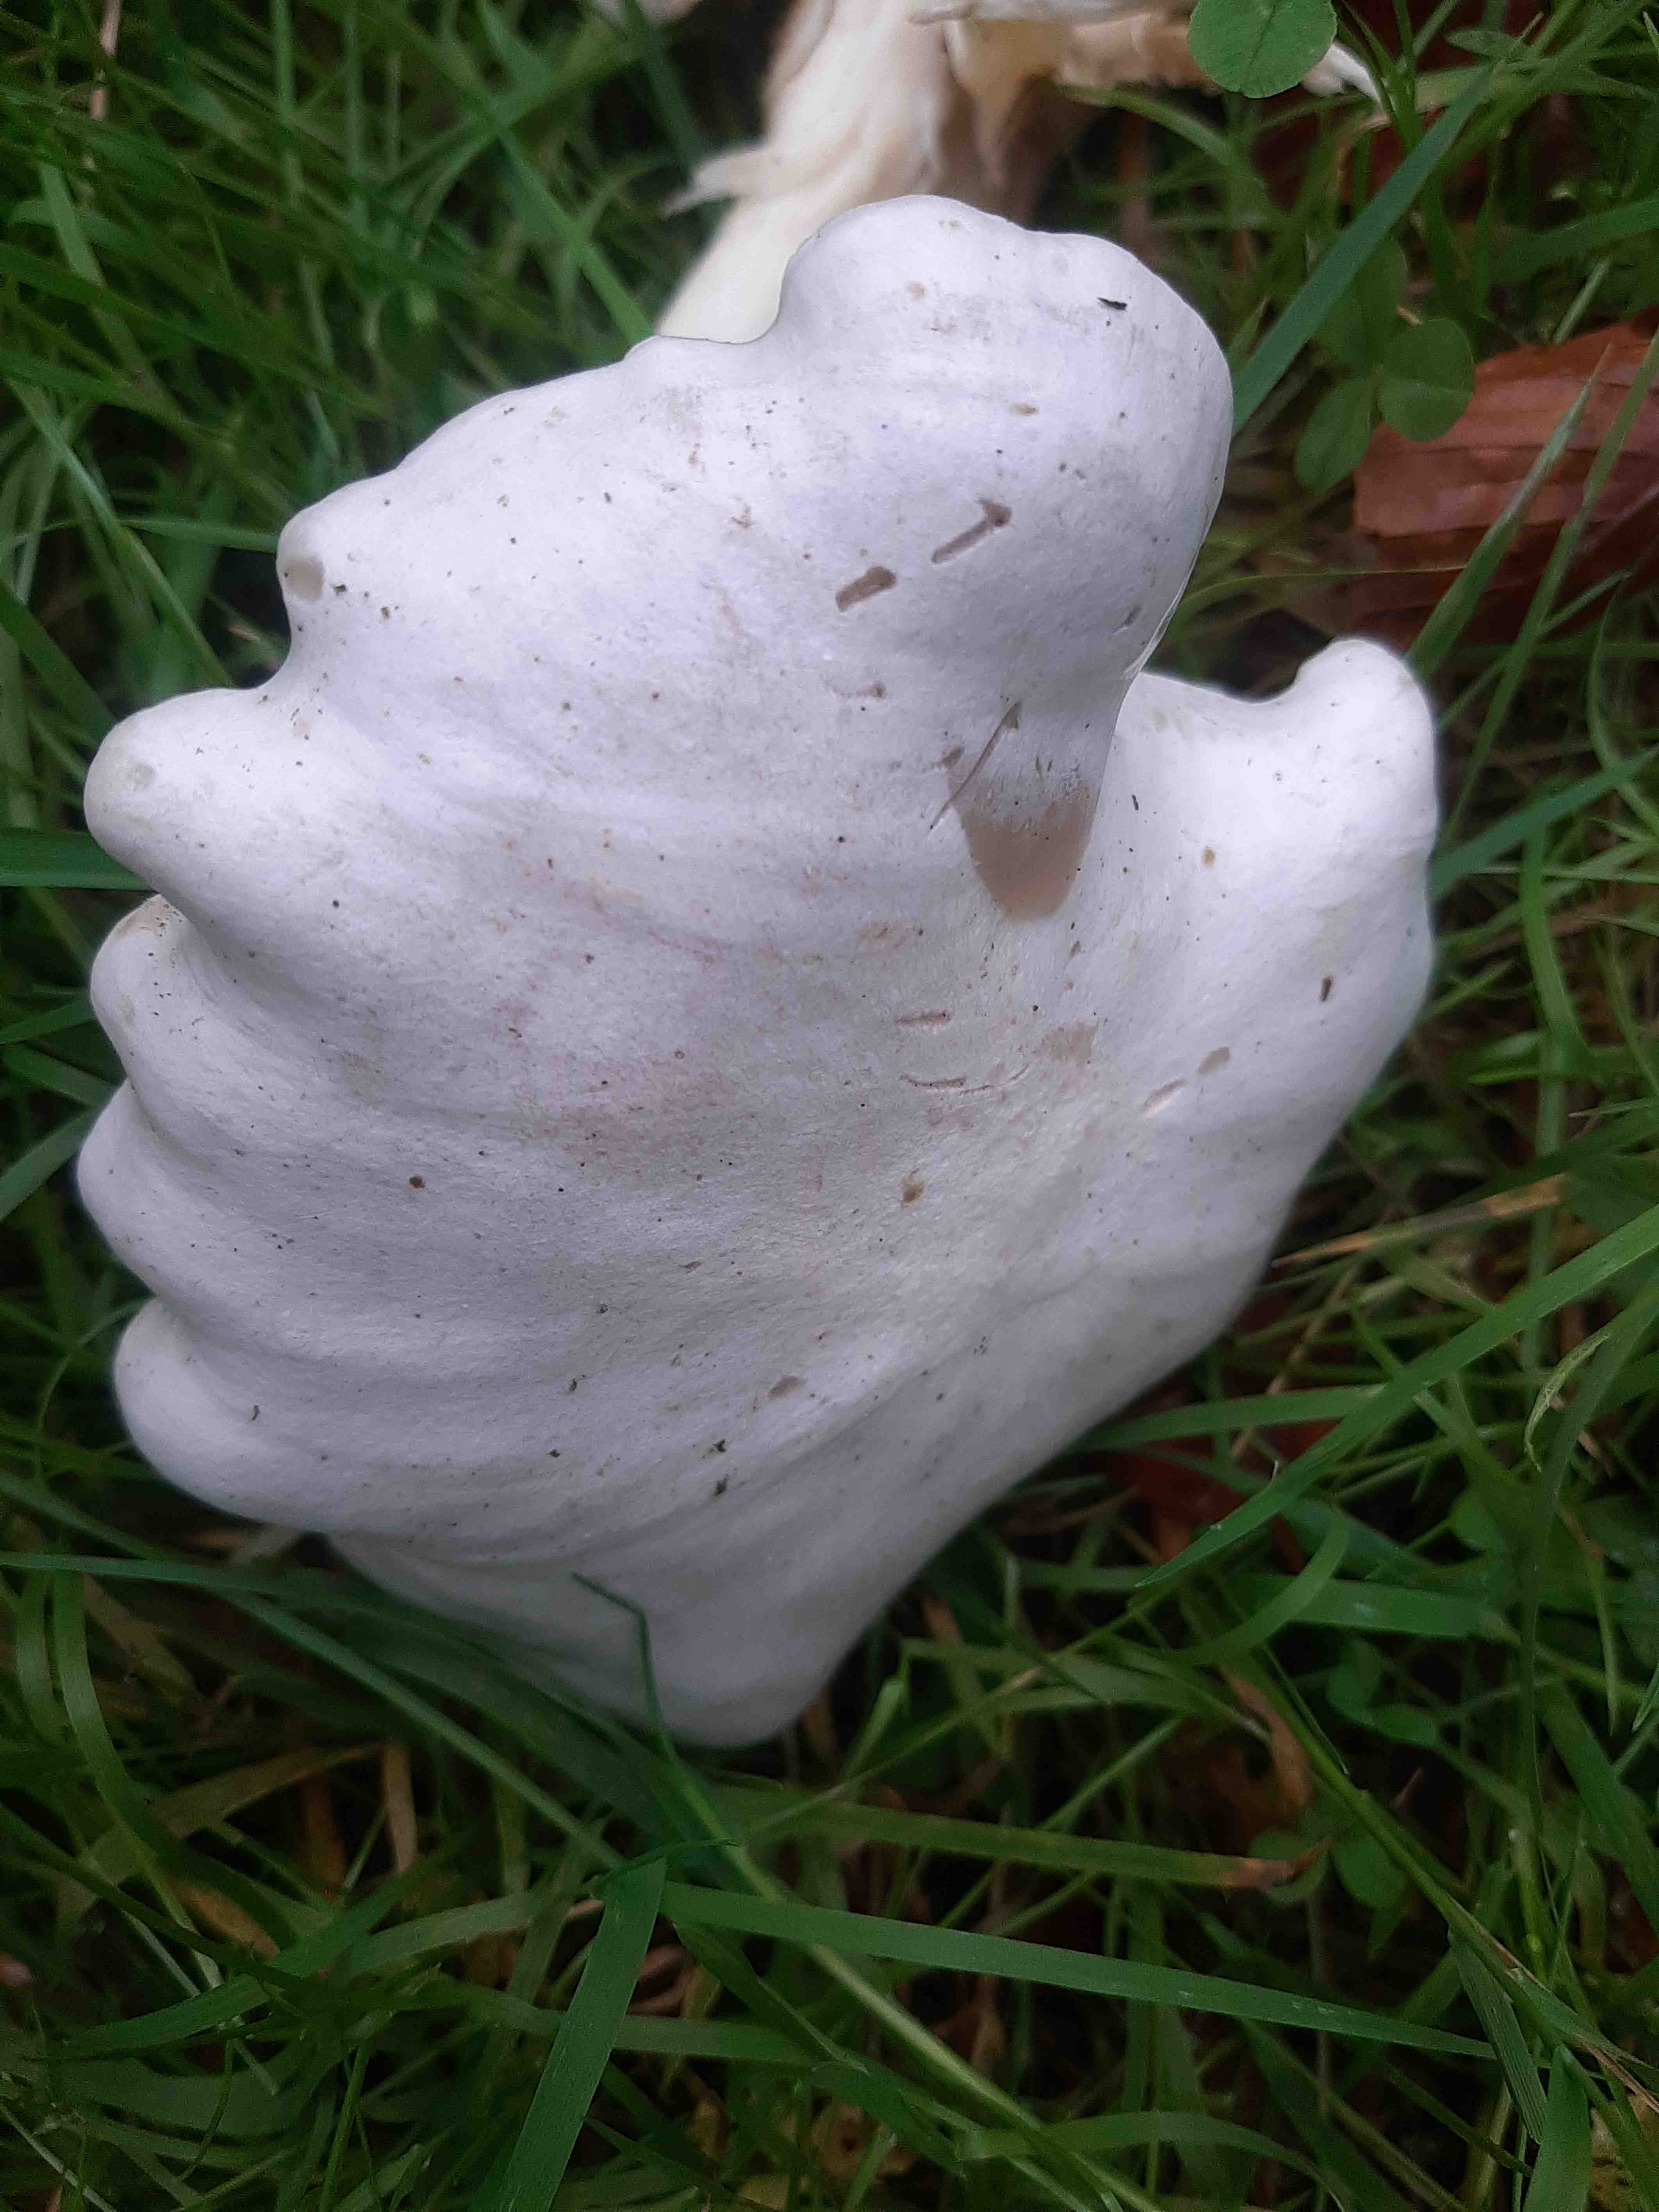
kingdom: Fungi
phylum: Basidiomycota
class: Agaricomycetes
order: Agaricales
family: Tricholomataceae
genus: Leucocybe
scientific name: Leucocybe connata
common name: knippe-tragthat
